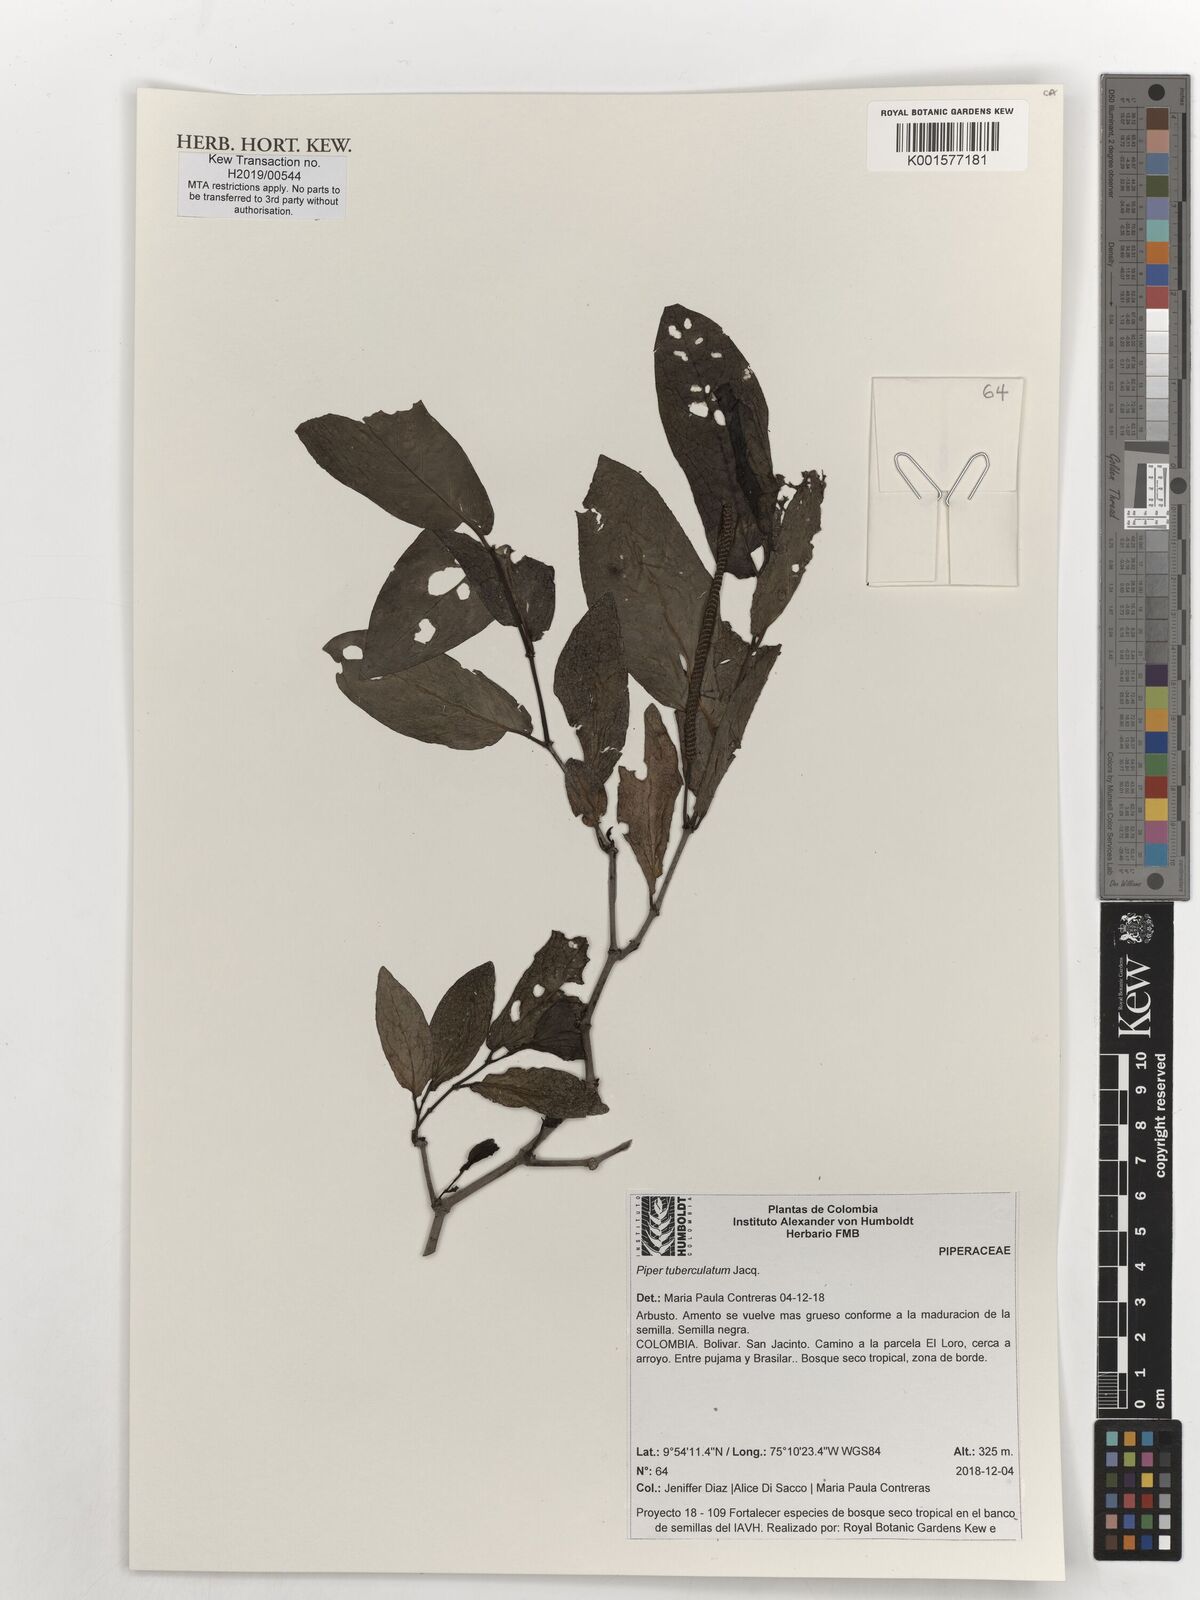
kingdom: Plantae
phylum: Tracheophyta
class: Magnoliopsida
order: Piperales
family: Piperaceae
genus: Piper
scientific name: Piper tuberculatum
